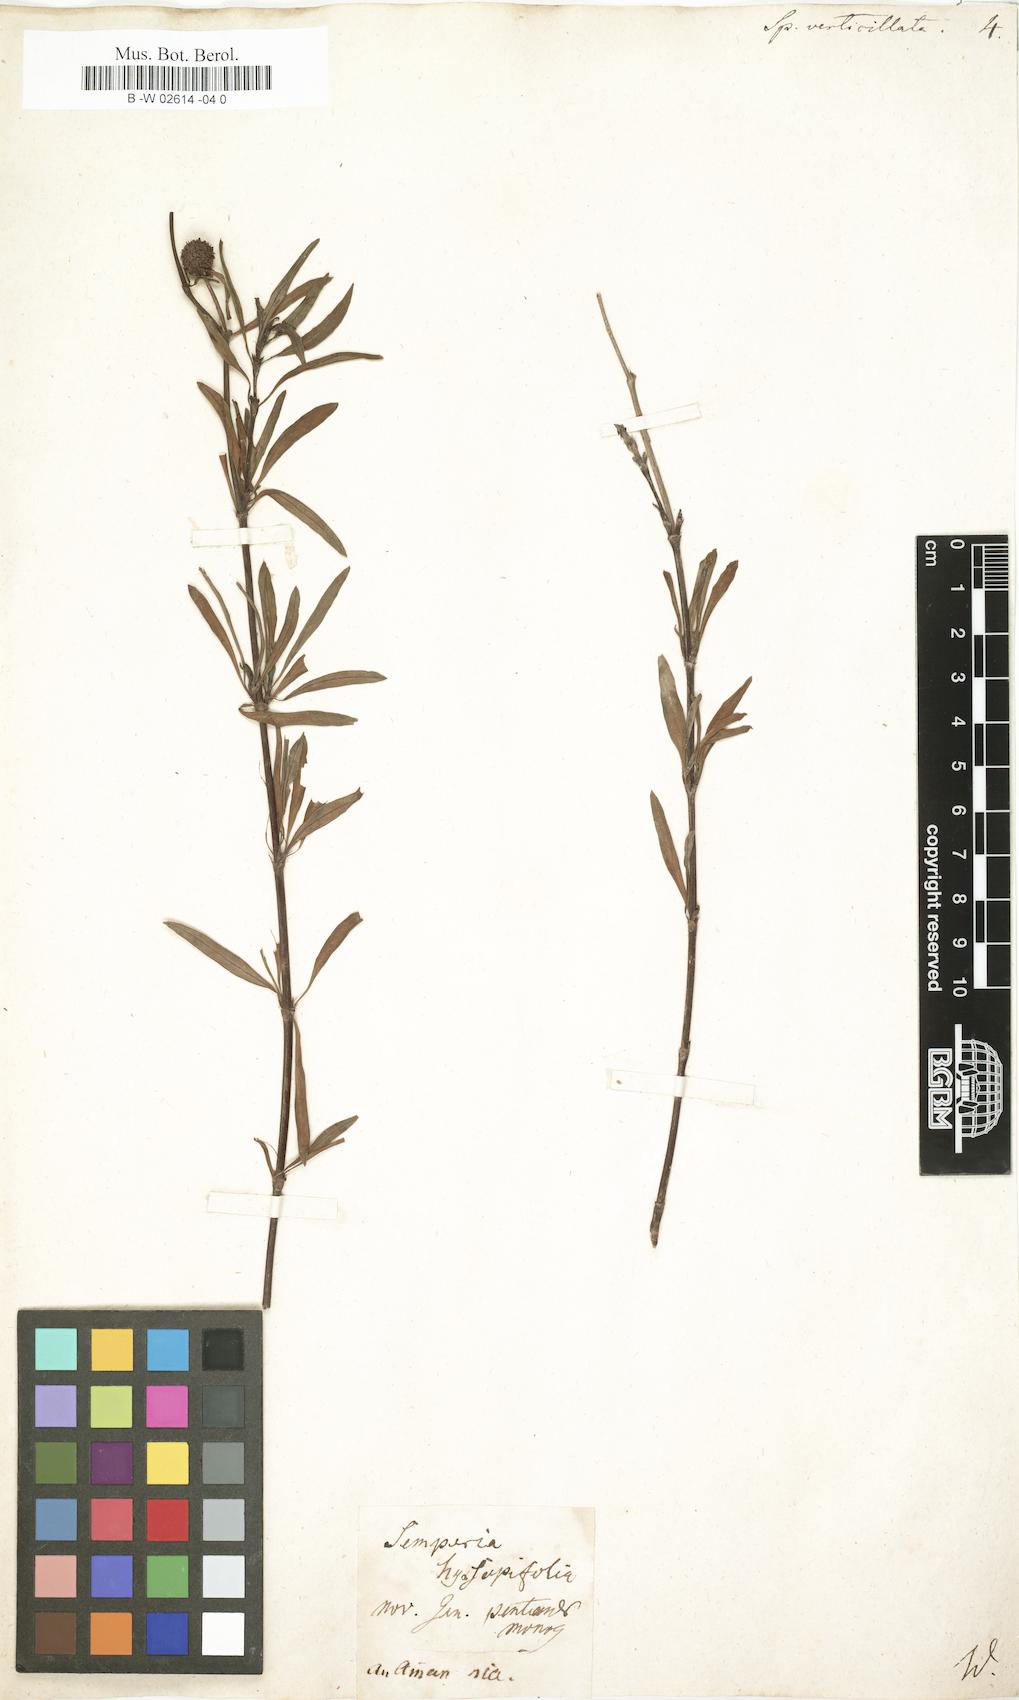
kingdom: Plantae
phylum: Tracheophyta
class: Magnoliopsida
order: Gentianales
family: Rubiaceae
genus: Spermacoce
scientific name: Spermacoce verticillata
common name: Shrubby false buttonweed
